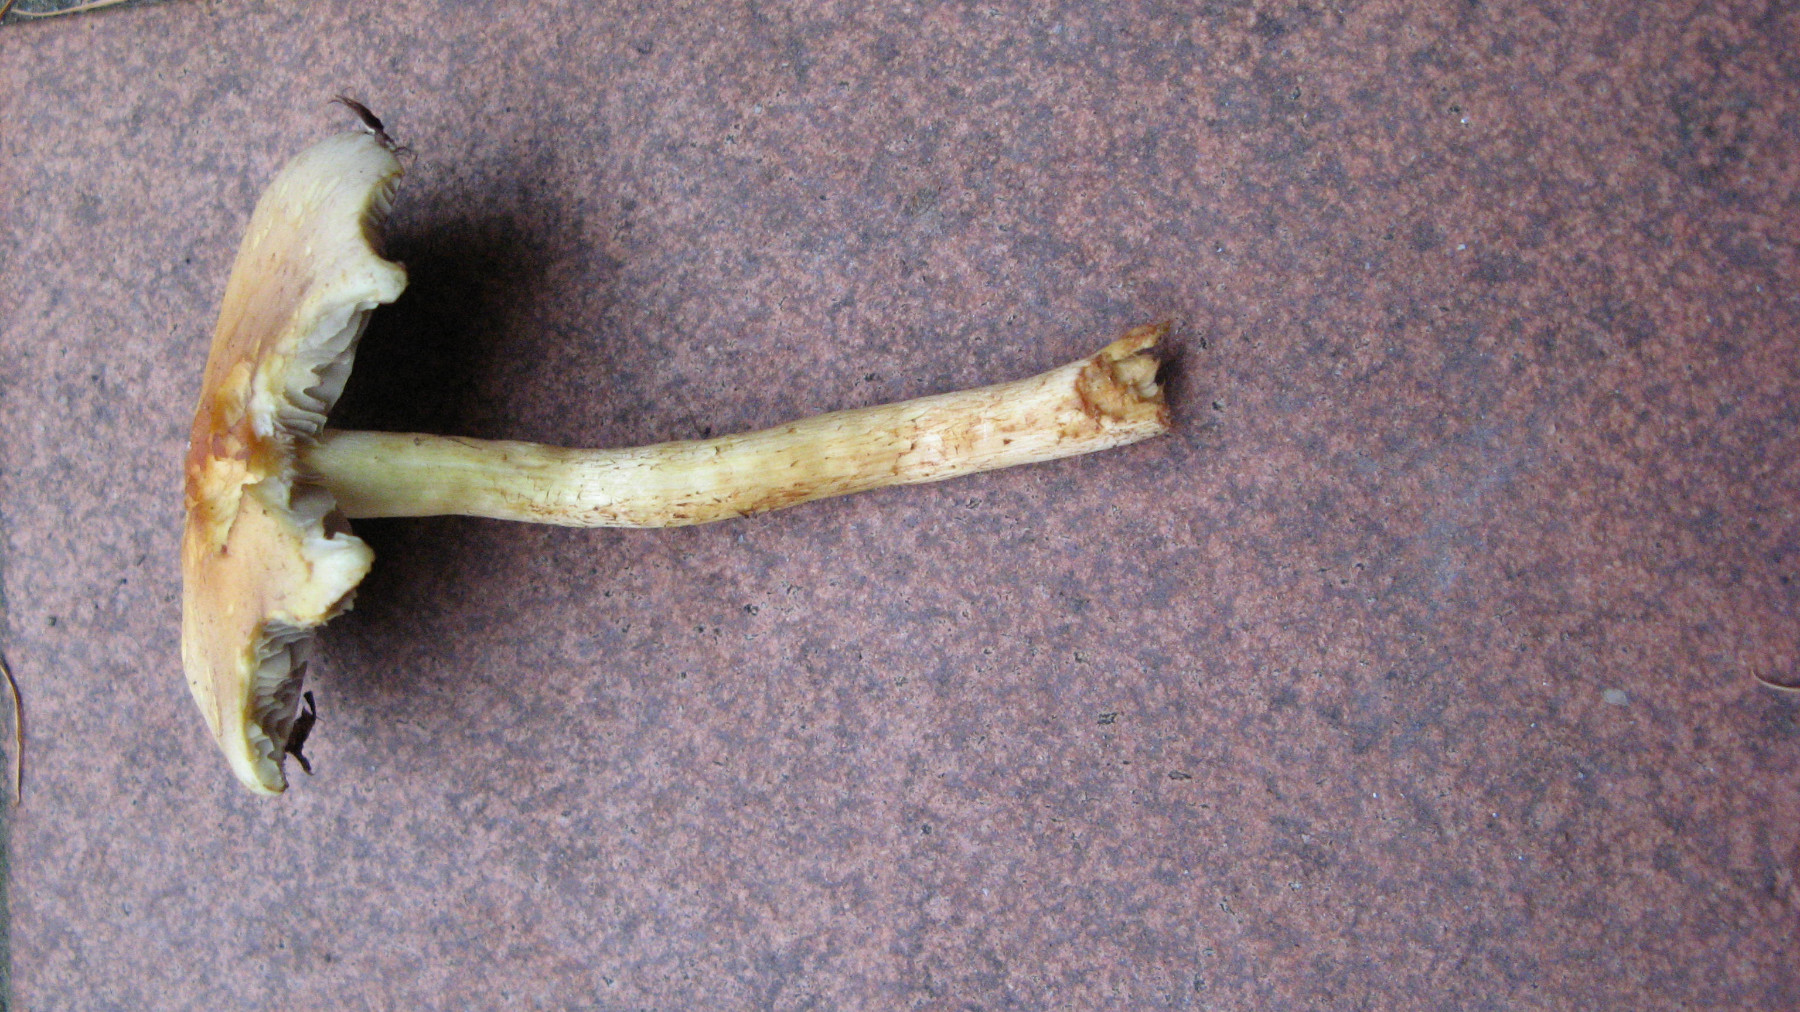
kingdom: Fungi
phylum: Basidiomycota
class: Agaricomycetes
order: Agaricales
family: Strophariaceae
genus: Hypholoma
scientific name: Hypholoma fasciculare
